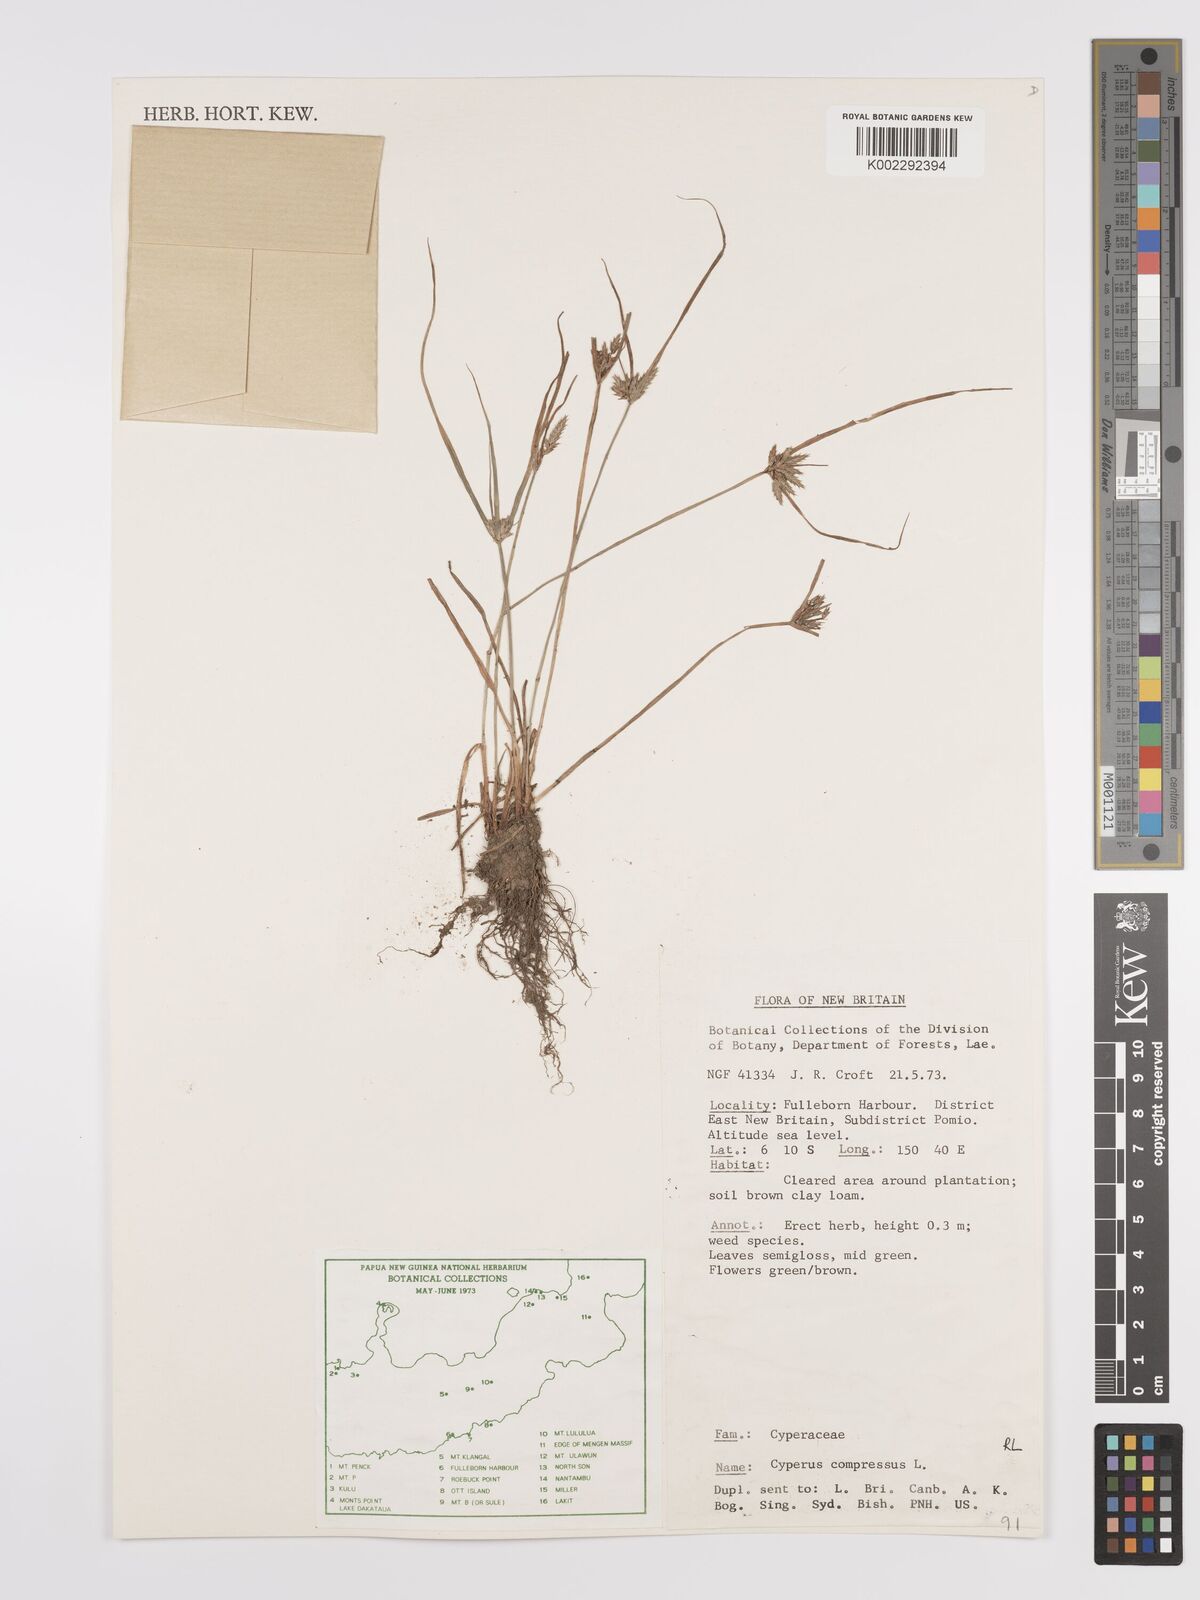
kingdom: Plantae
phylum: Tracheophyta
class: Liliopsida
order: Poales
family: Cyperaceae
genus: Cyperus
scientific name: Cyperus compressus
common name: Poorland flatsedge
